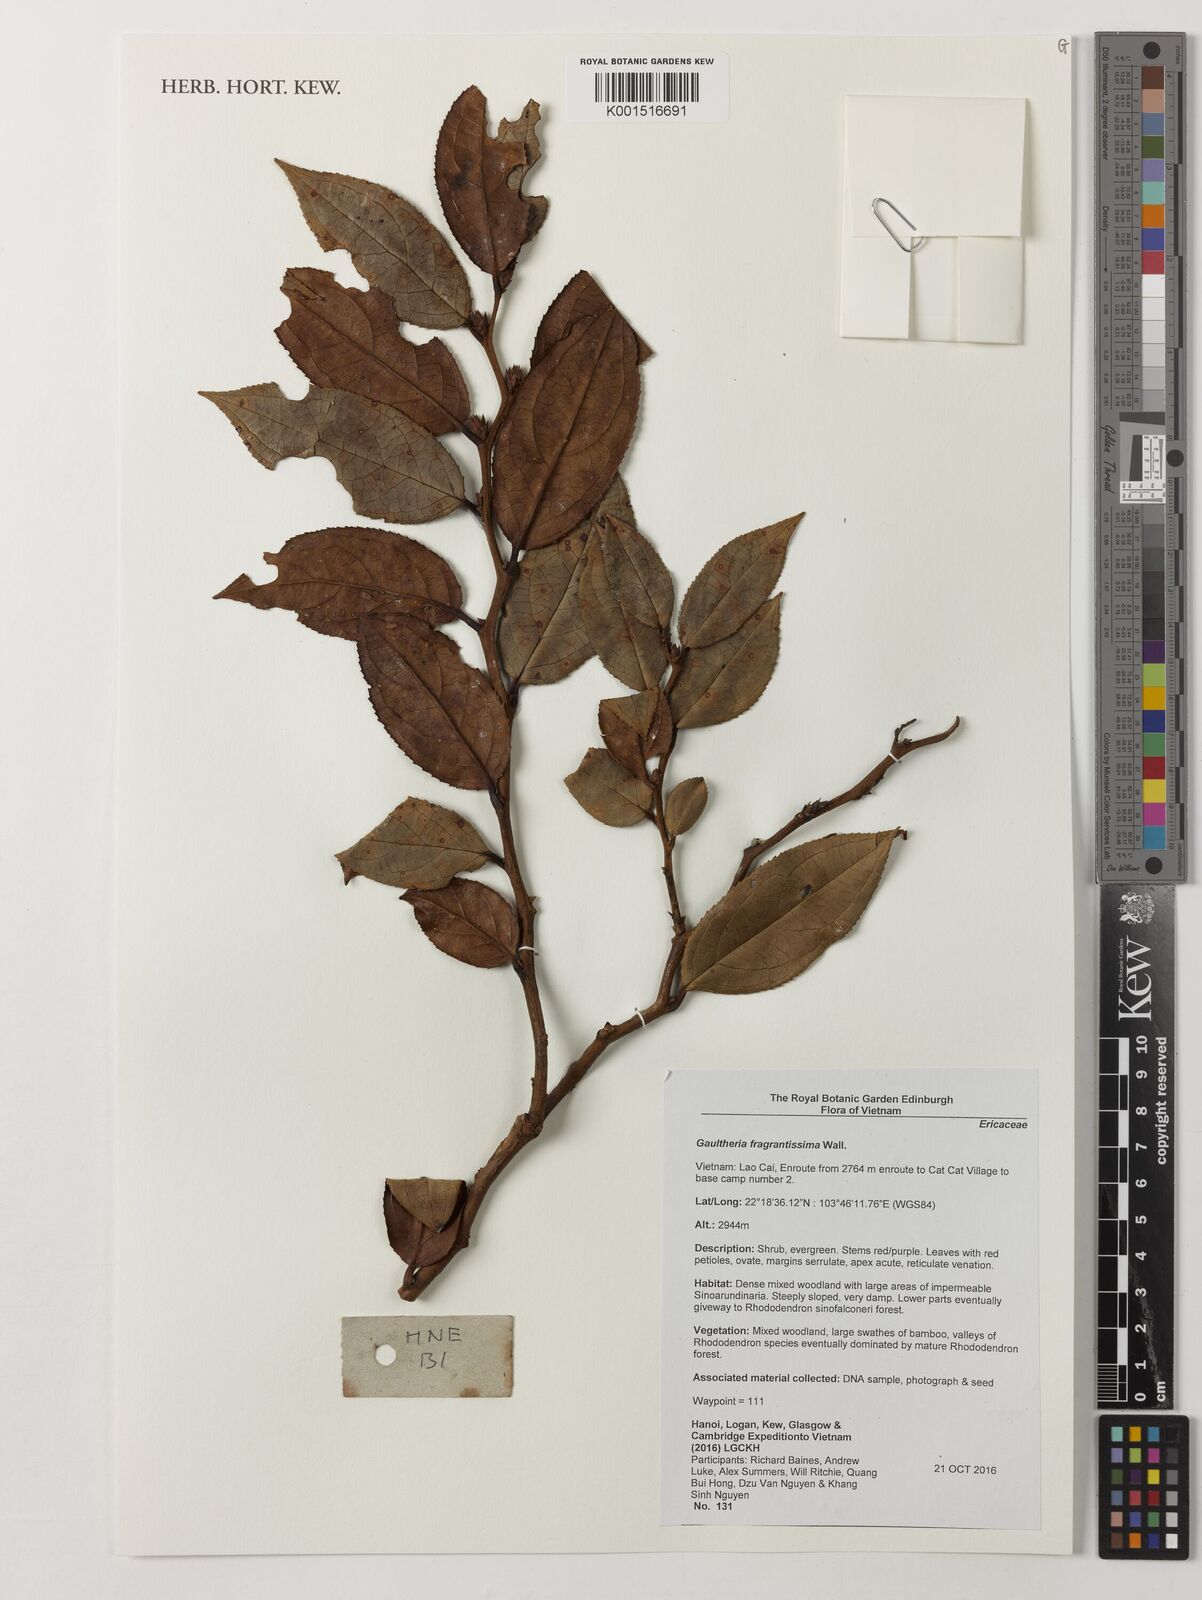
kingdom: Plantae
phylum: Tracheophyta
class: Magnoliopsida
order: Ericales
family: Ericaceae
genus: Gaultheria
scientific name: Gaultheria fragrantissima
